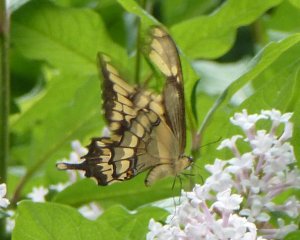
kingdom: Animalia
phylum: Arthropoda
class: Insecta
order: Lepidoptera
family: Papilionidae
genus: Papilio
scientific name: Papilio cresphontes
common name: Eastern Giant Swallowtail
